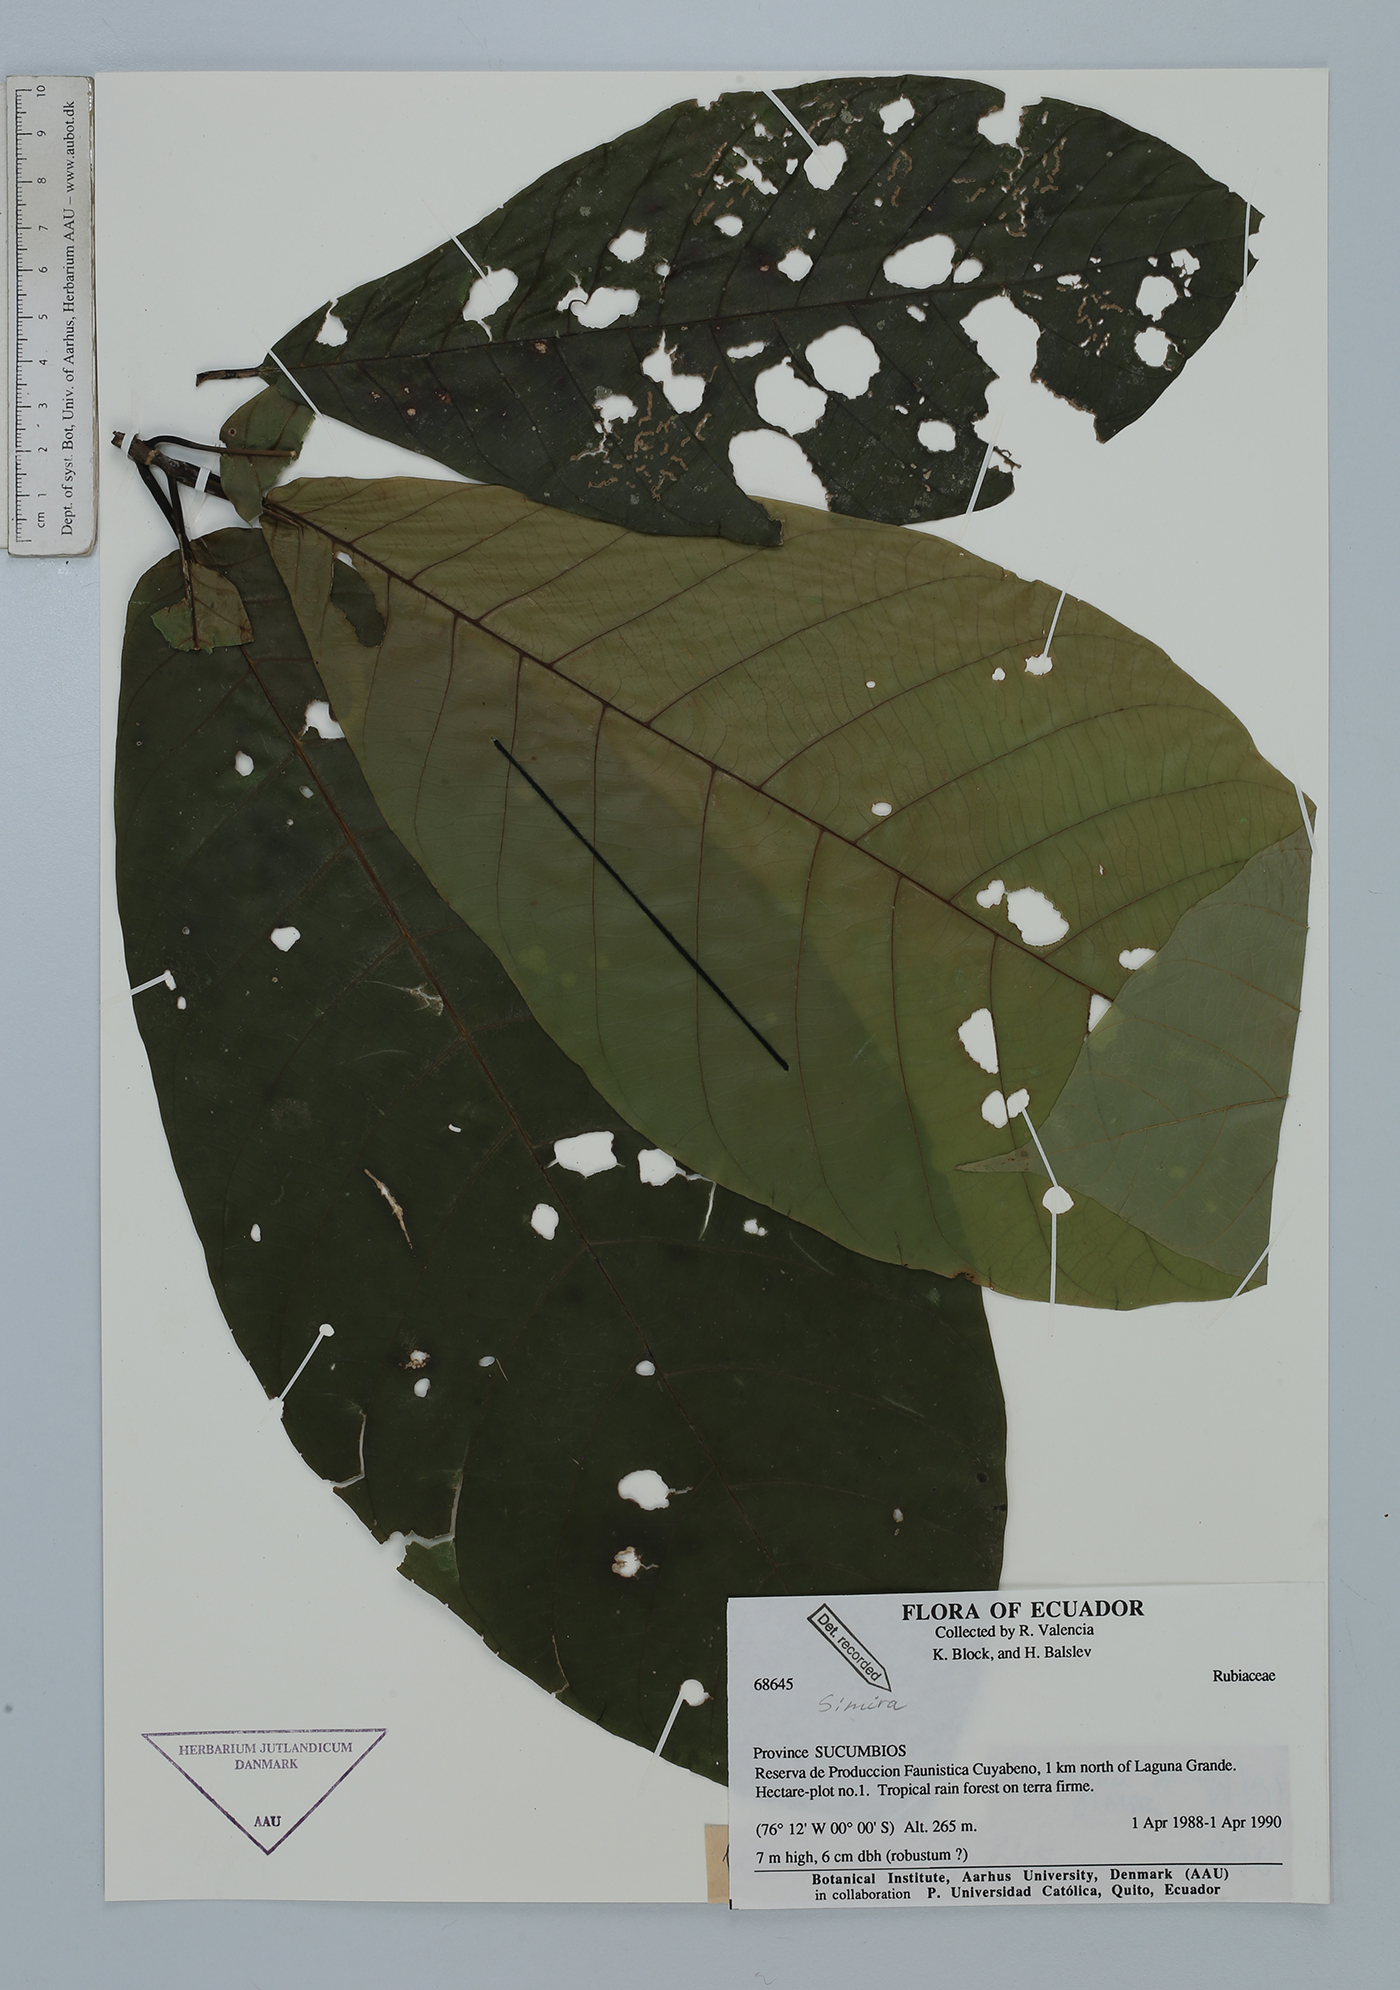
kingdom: Plantae
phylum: Tracheophyta
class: Magnoliopsida
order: Gentianales
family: Rubiaceae
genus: Simira
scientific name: Simira
